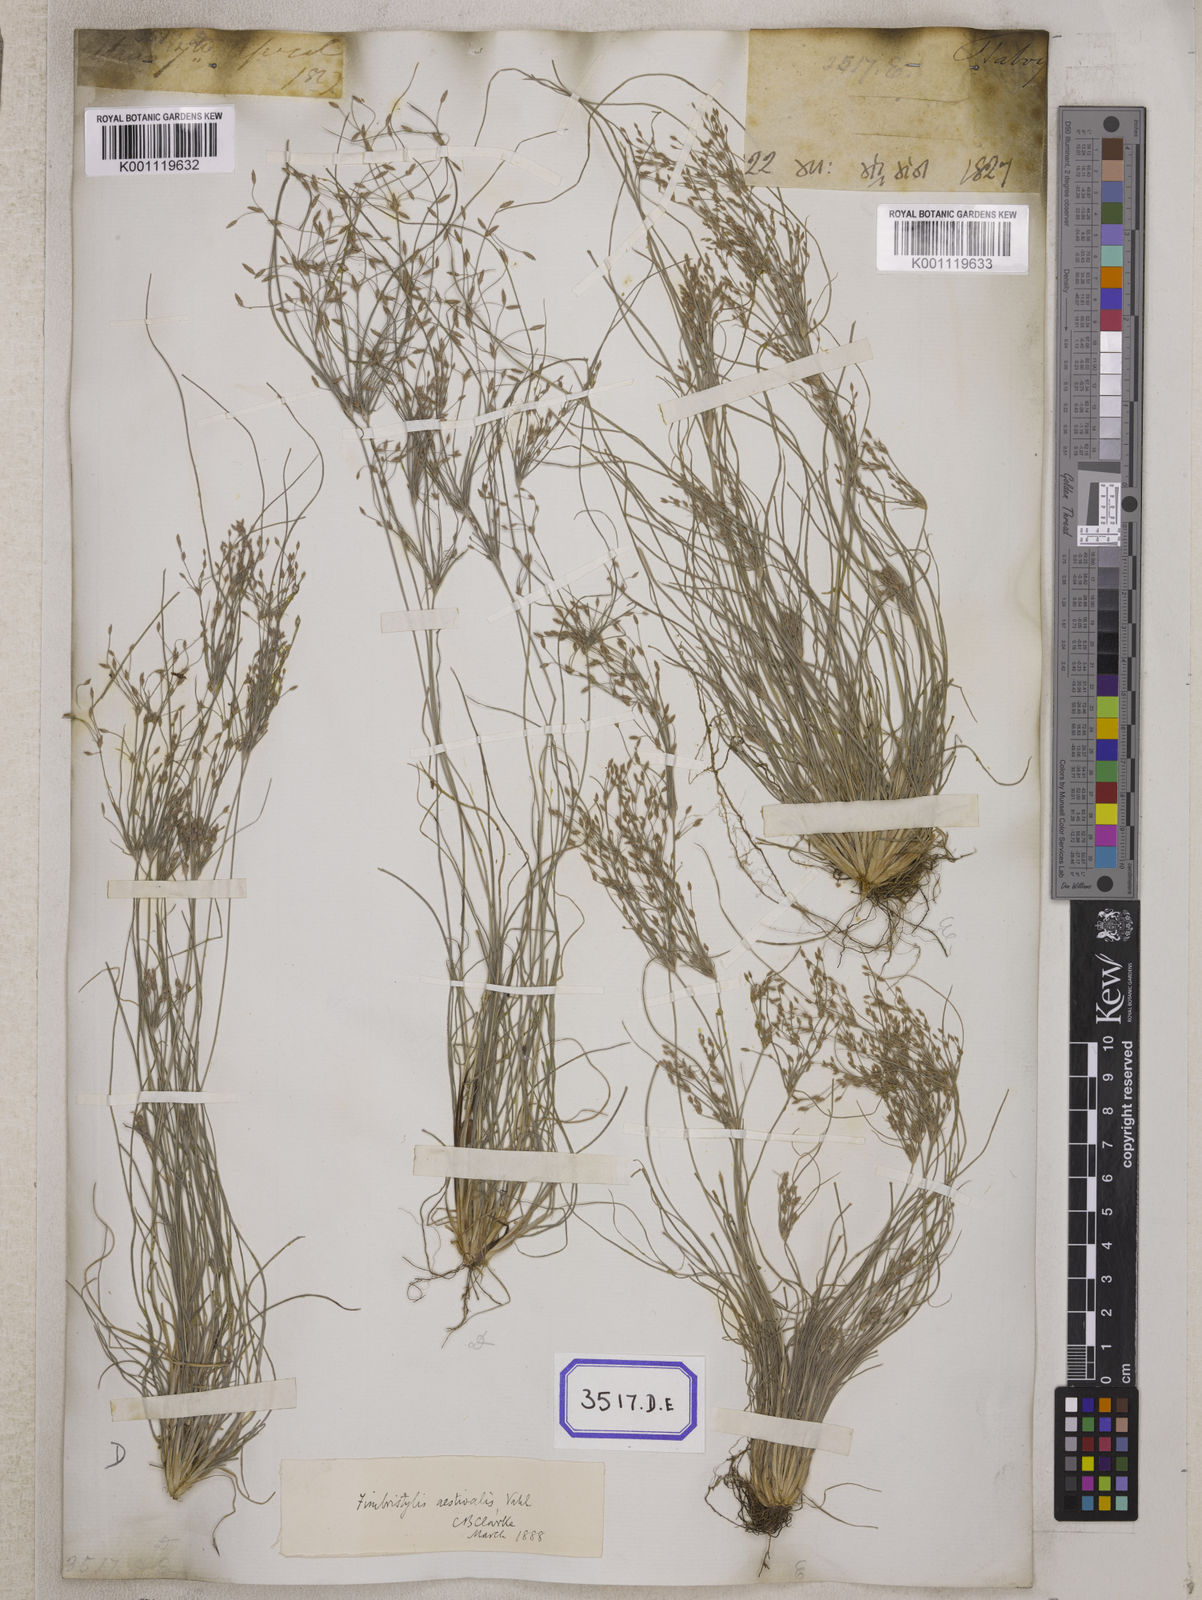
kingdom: Plantae
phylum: Tracheophyta
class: Liliopsida
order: Poales
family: Cyperaceae
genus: Fimbristylis
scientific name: Fimbristylis
